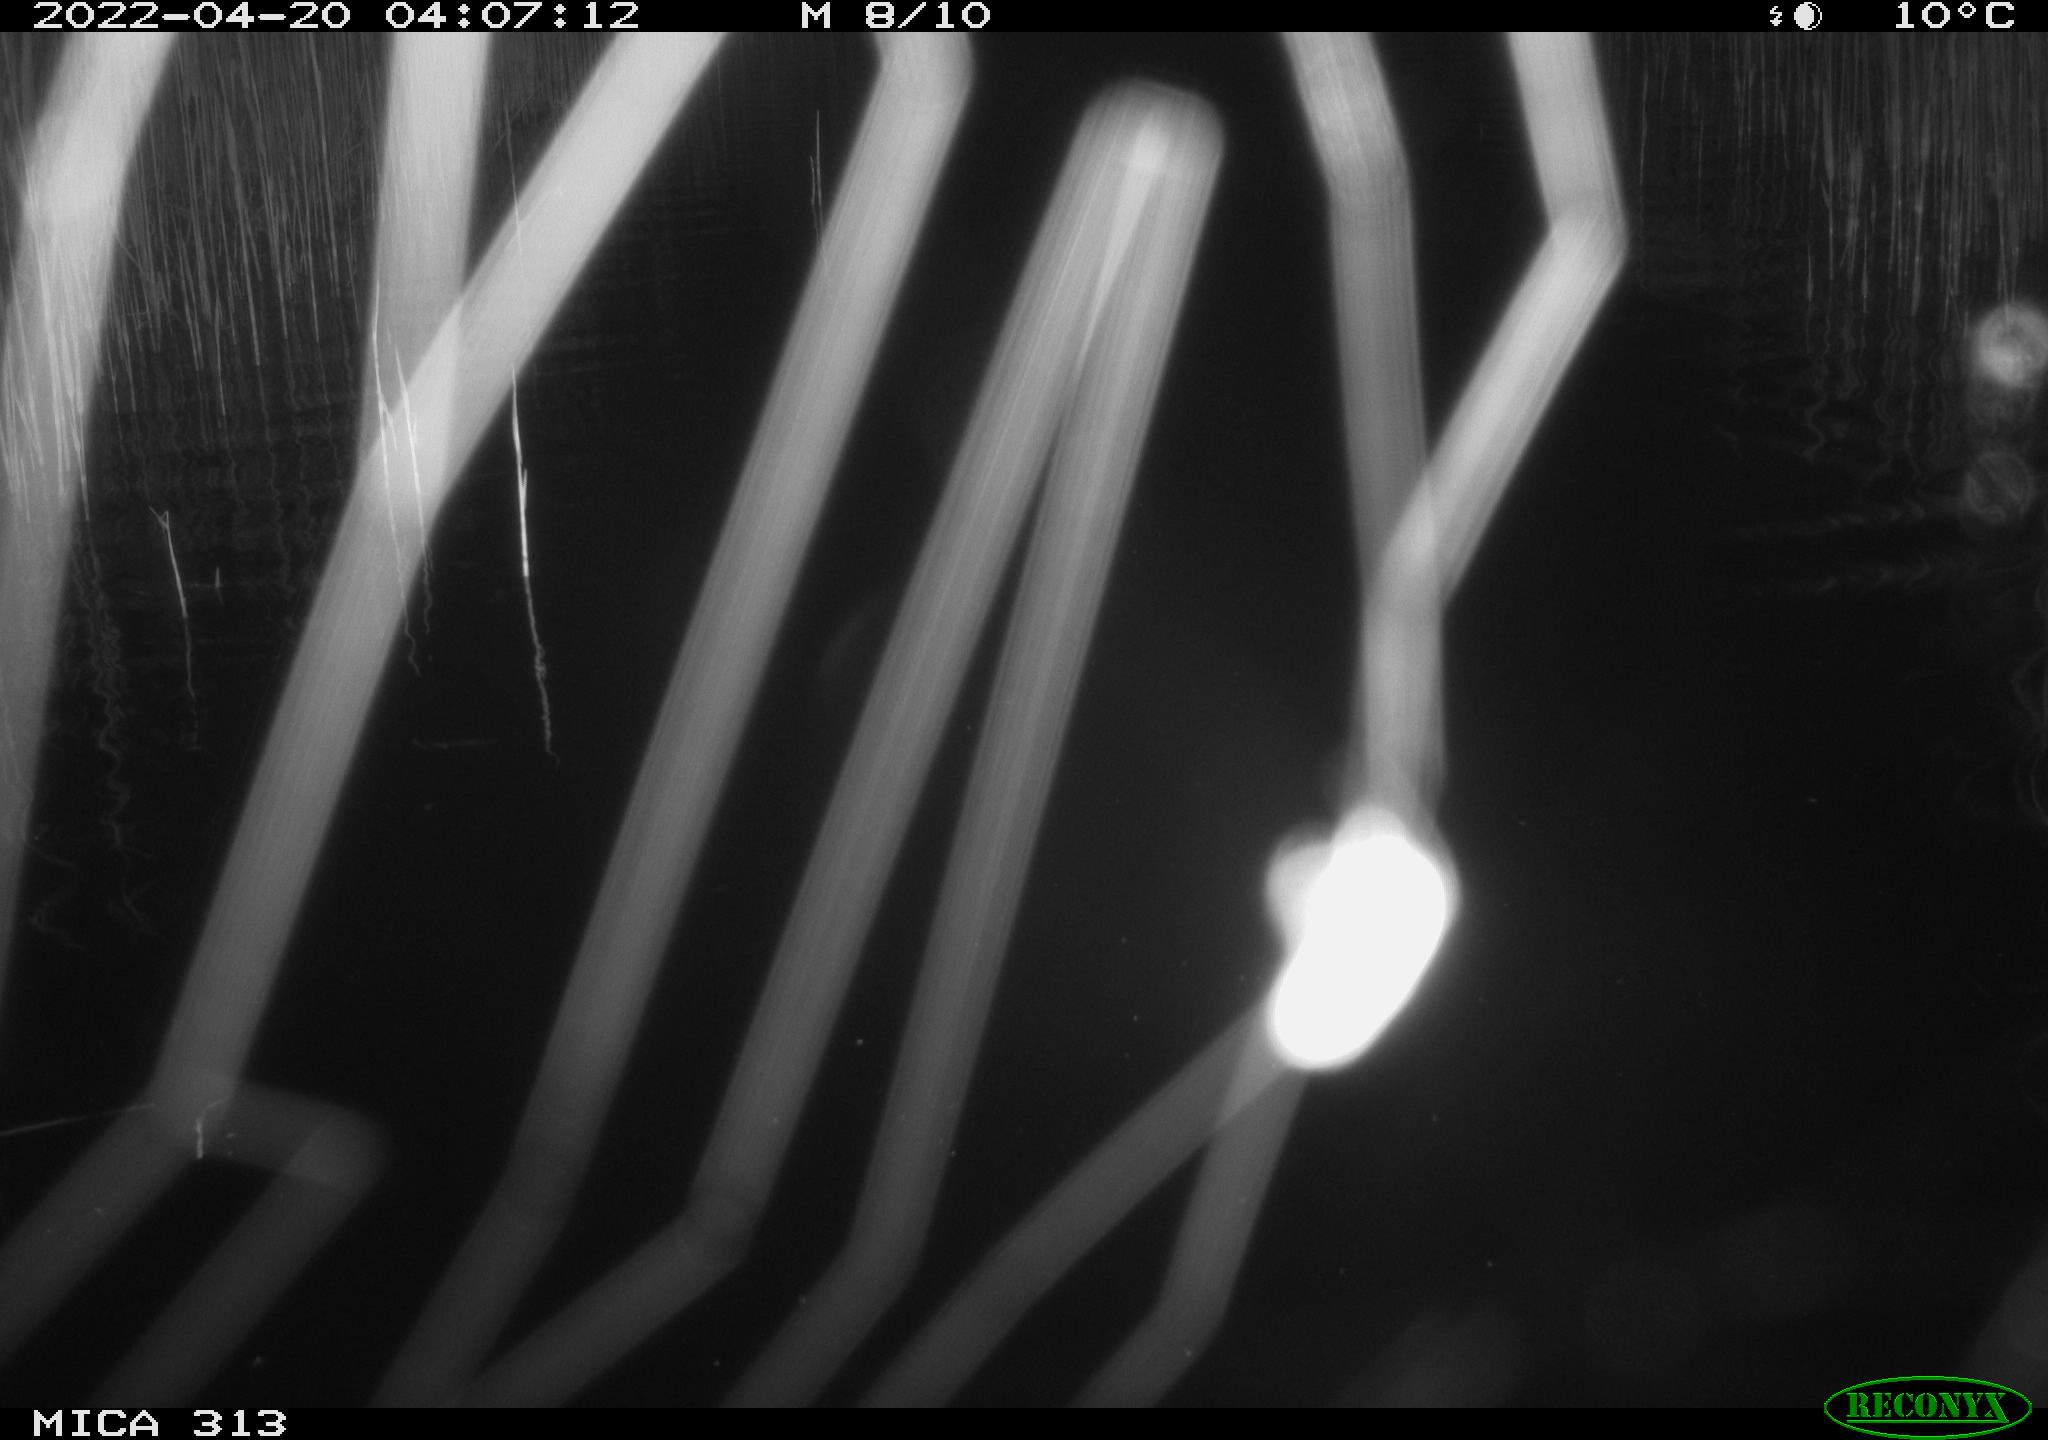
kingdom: Animalia
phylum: Chordata
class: Mammalia
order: Rodentia
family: Cricetidae
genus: Ondatra
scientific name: Ondatra zibethicus
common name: Muskrat
